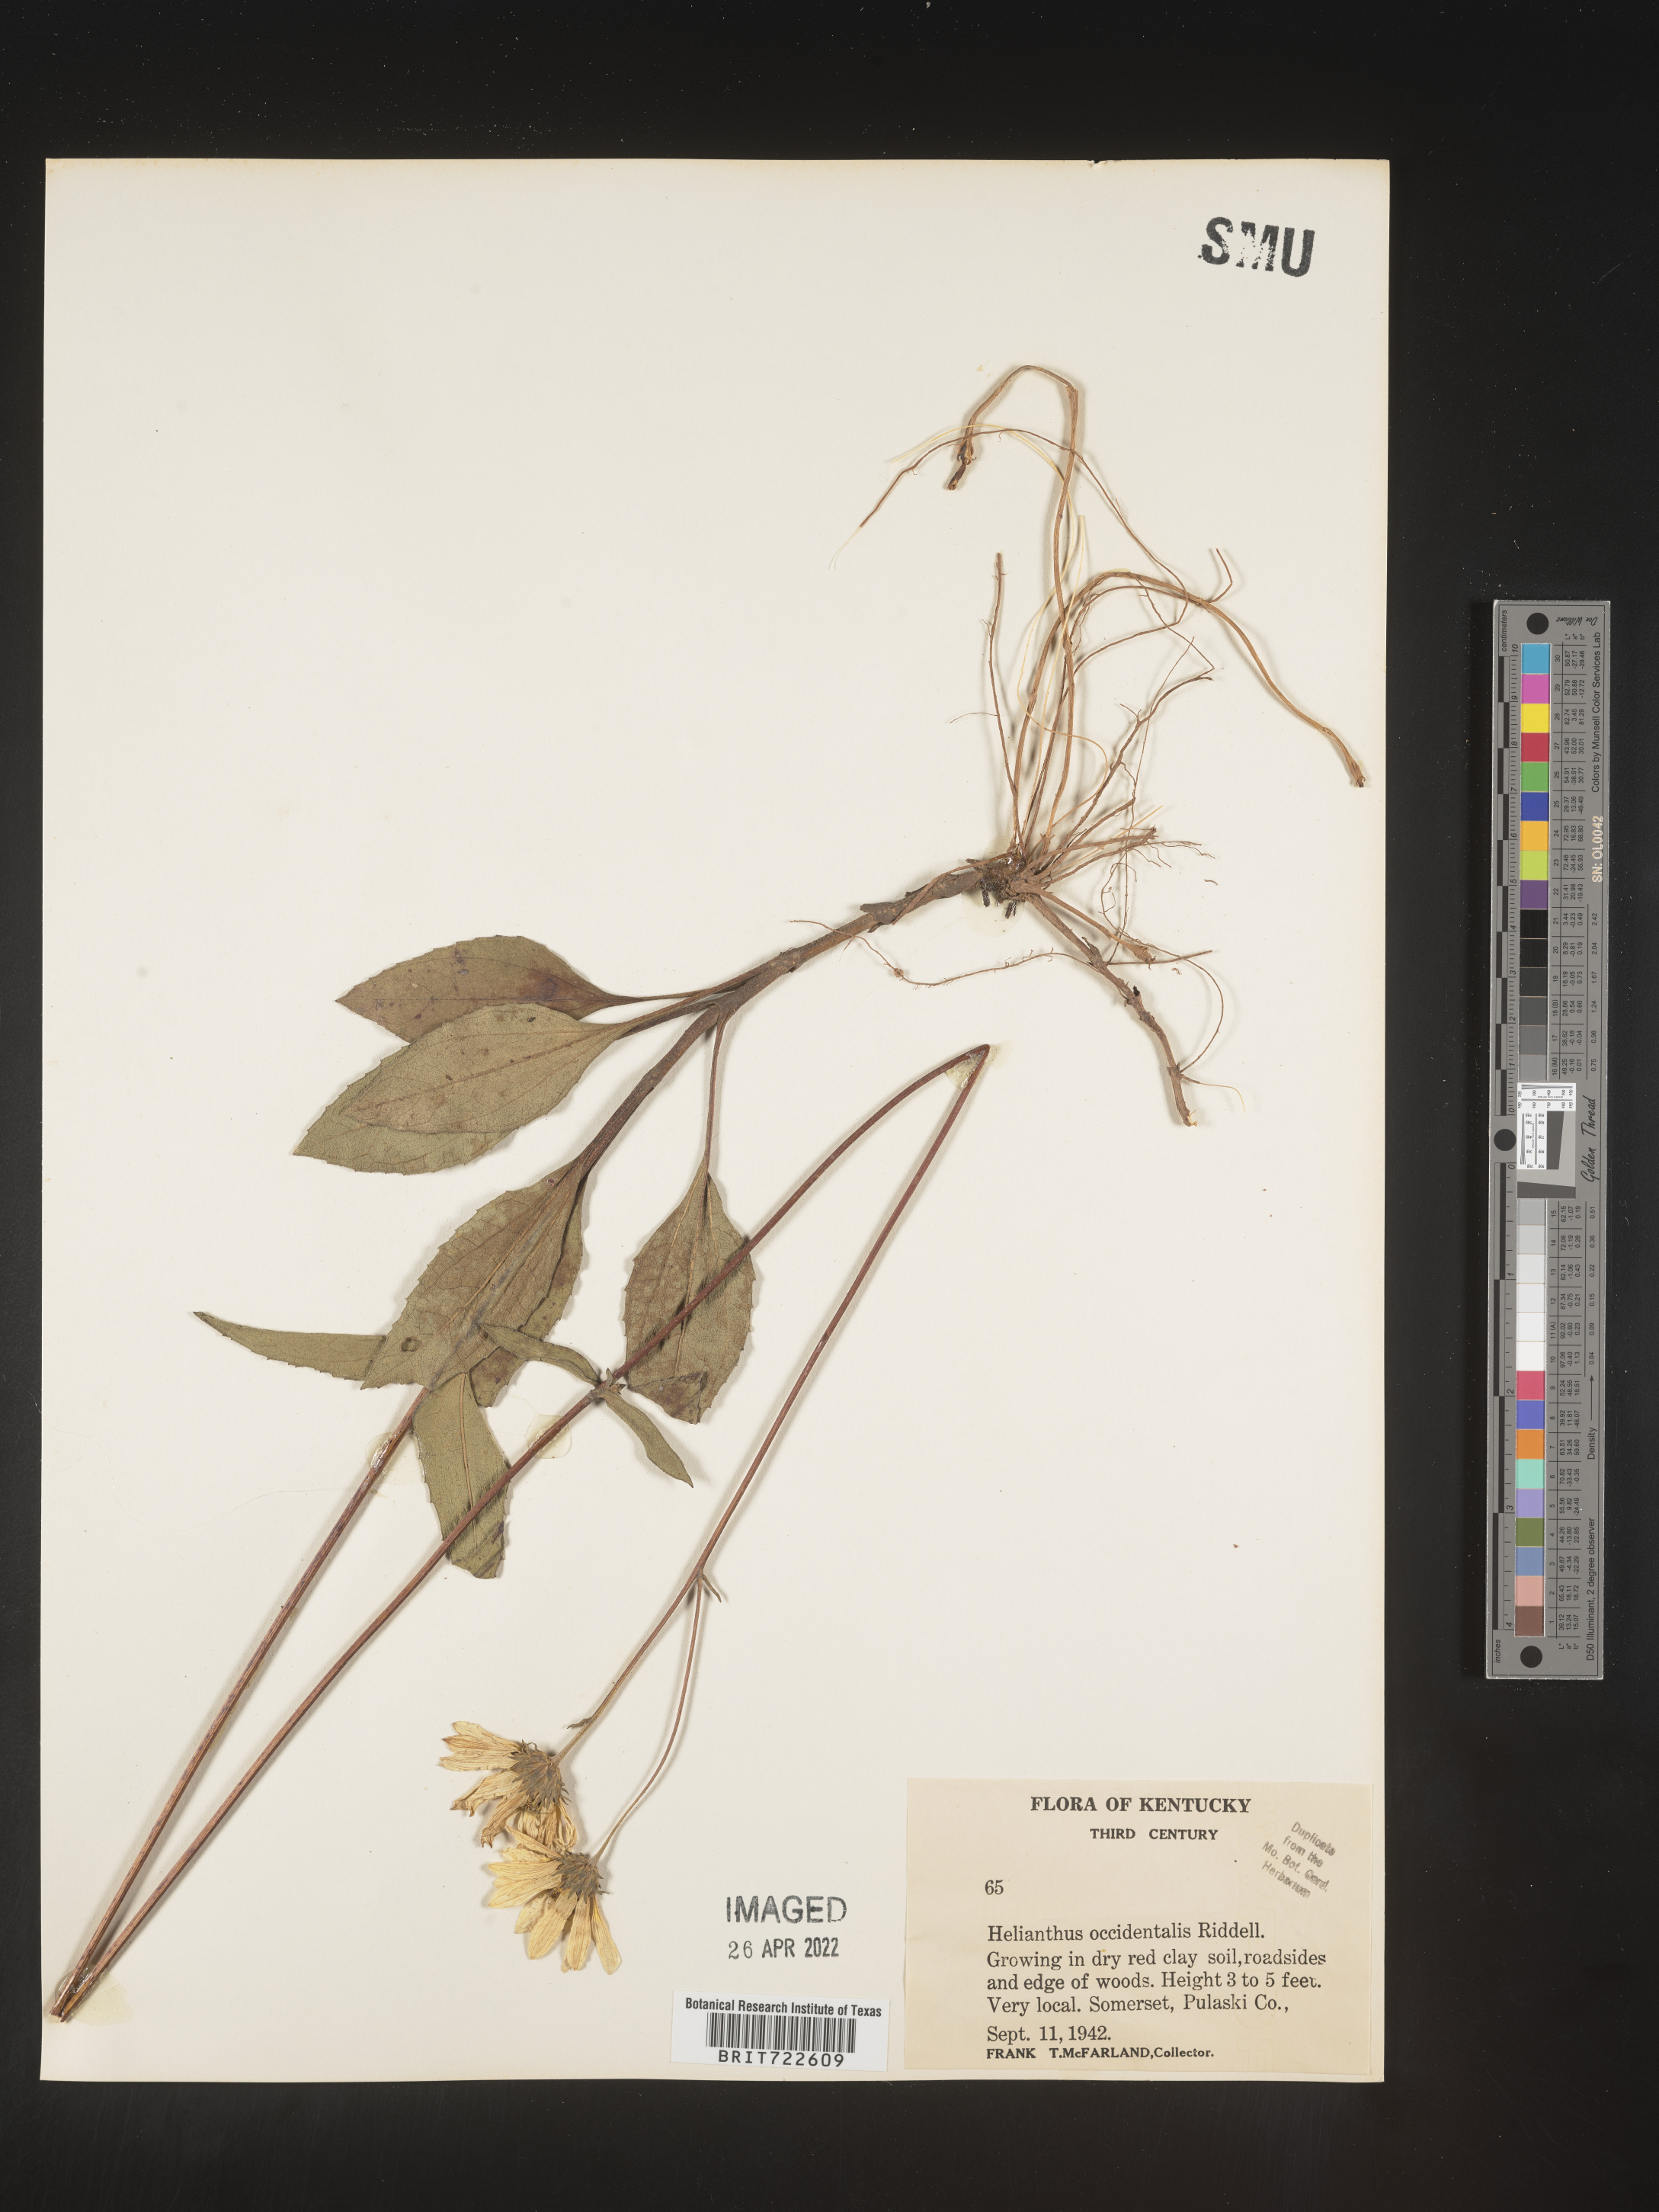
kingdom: Plantae
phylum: Tracheophyta
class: Magnoliopsida
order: Asterales
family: Asteraceae
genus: Helianthus
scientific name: Helianthus occidentalis
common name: Western sunflower
